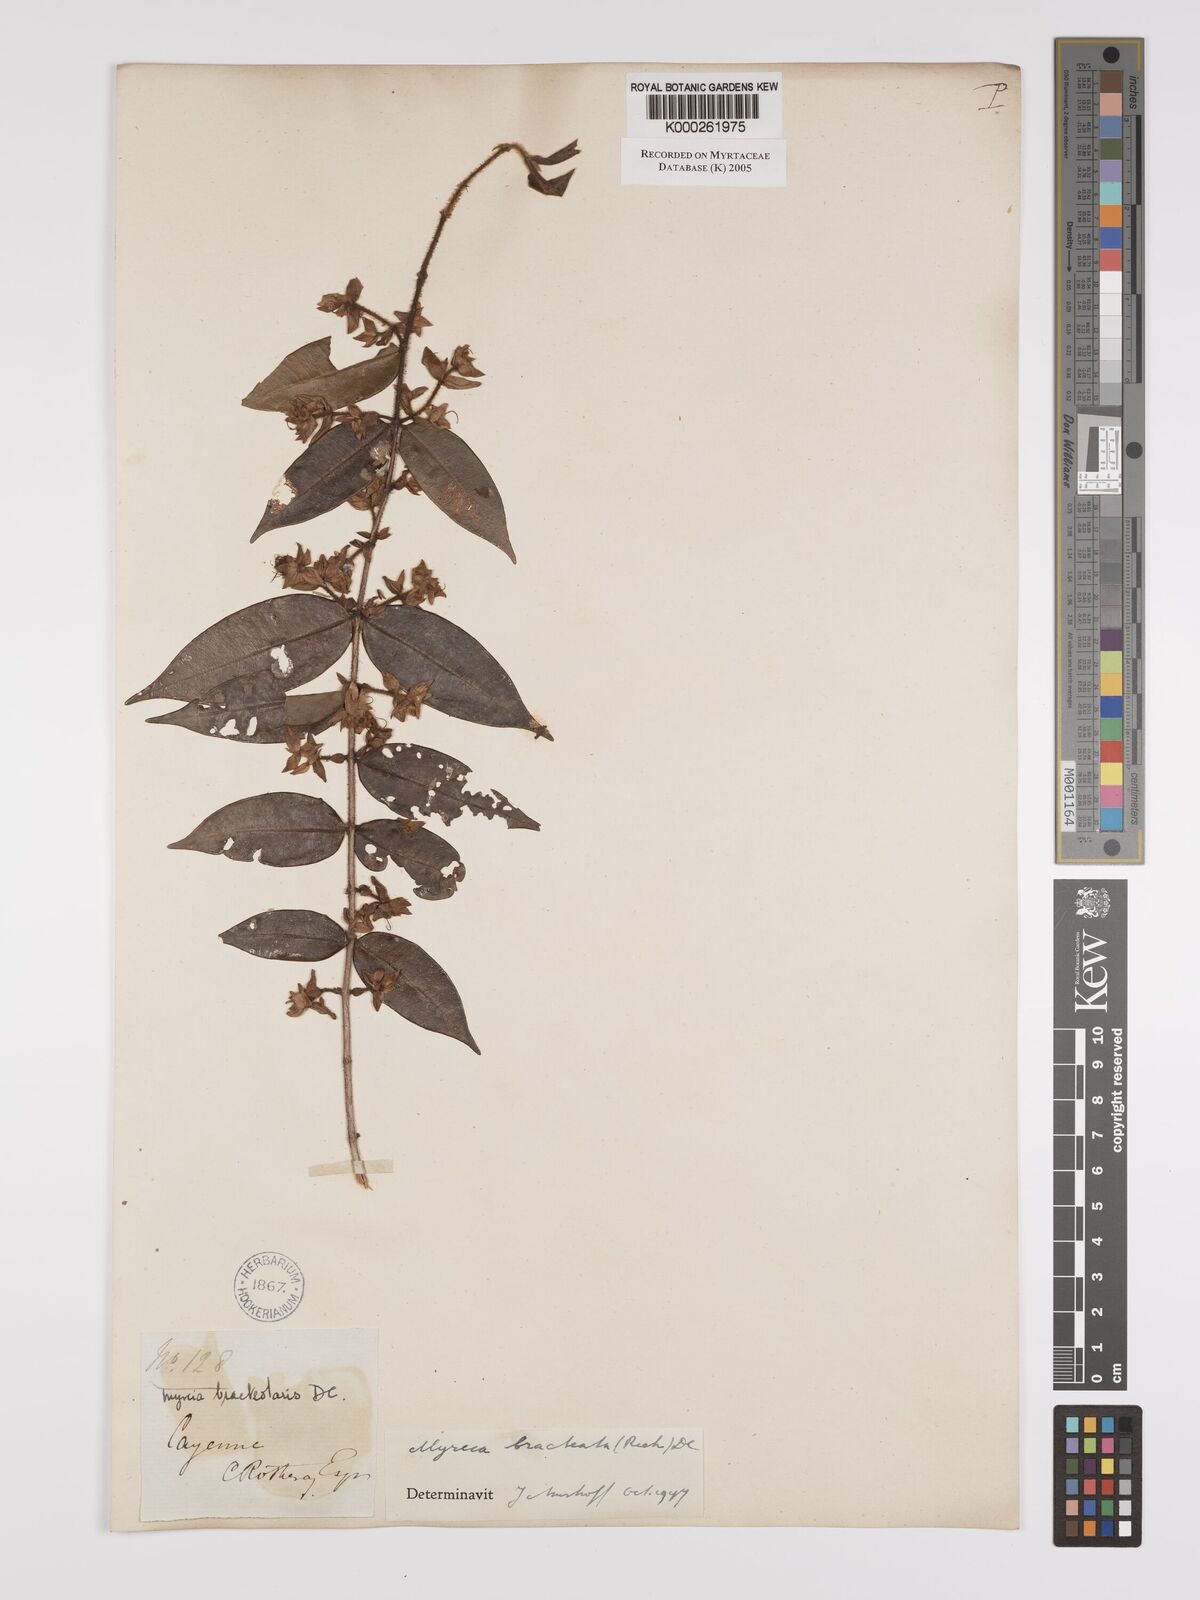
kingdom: Plantae
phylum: Tracheophyta
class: Magnoliopsida
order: Myrtales
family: Myrtaceae
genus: Myrcia
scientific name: Myrcia bracteata
